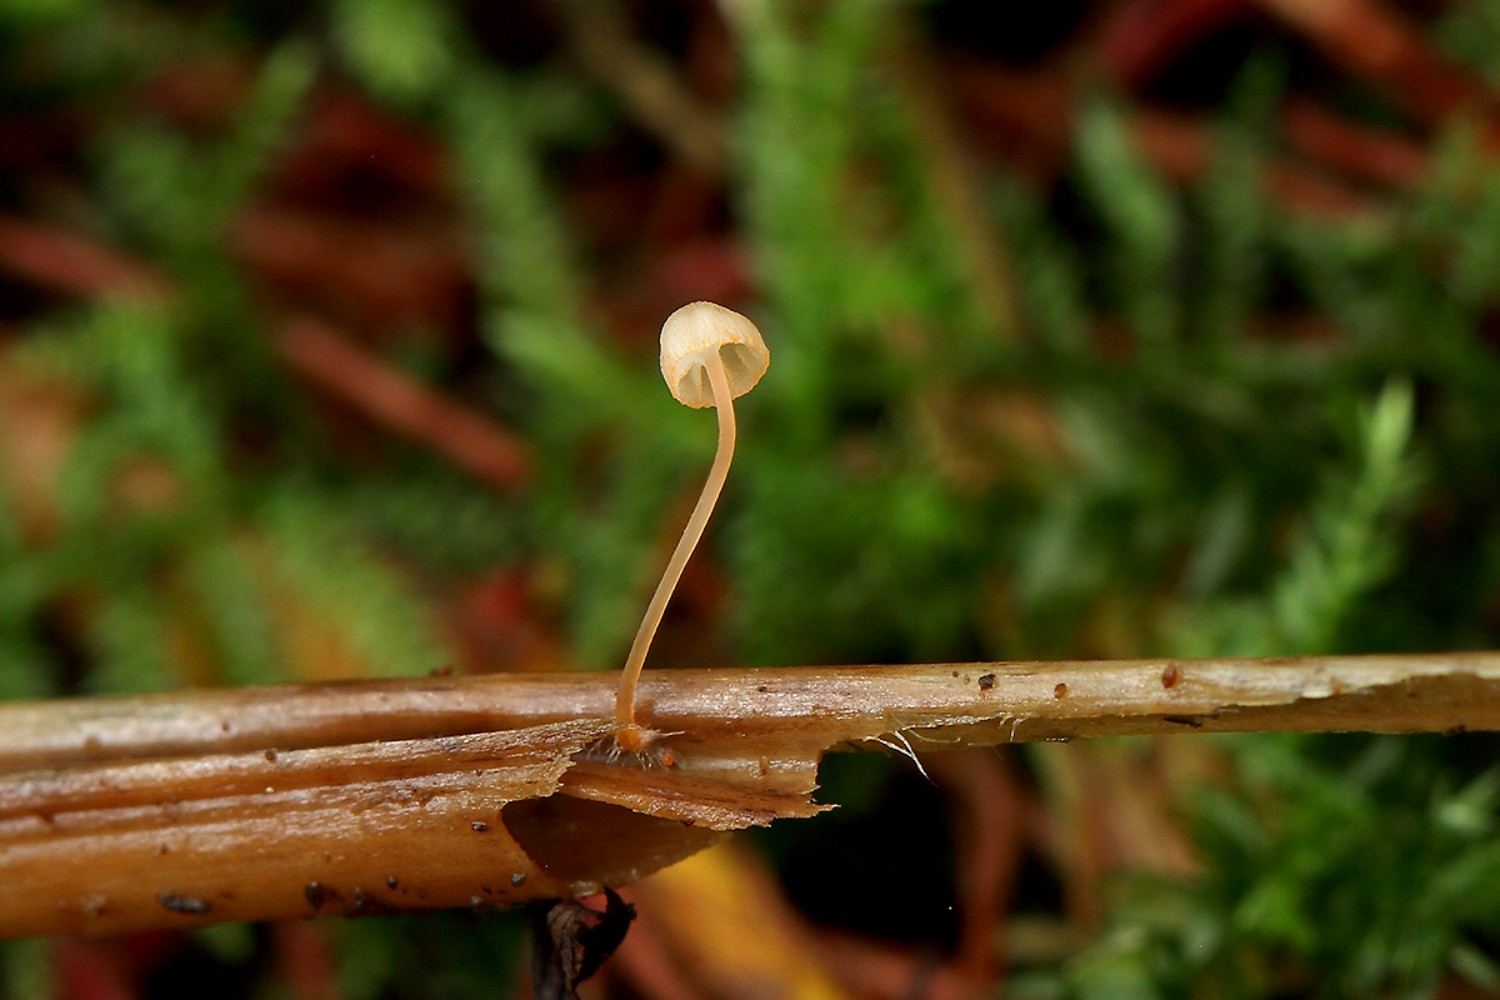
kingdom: Fungi
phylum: Basidiomycota
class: Agaricomycetes
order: Agaricales
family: Mycenaceae
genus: Mycena
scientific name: Mycena pterigena
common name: bregne-huesvamp
